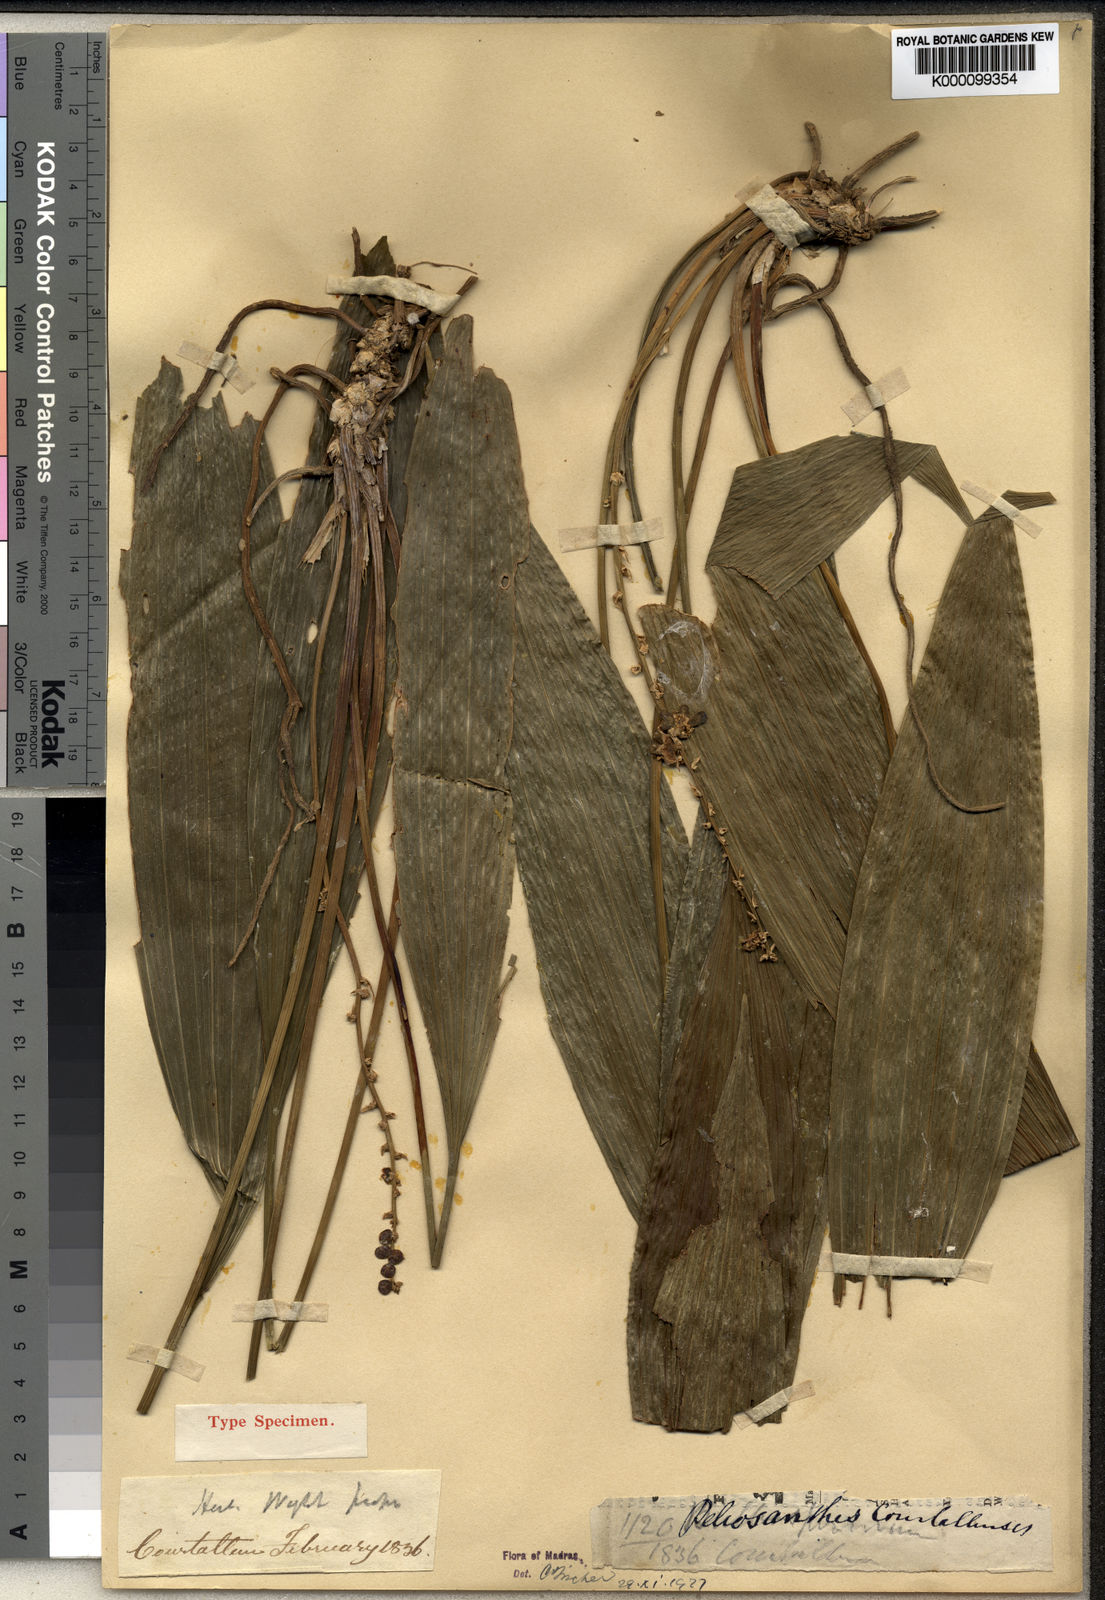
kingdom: Plantae
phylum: Tracheophyta
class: Liliopsida
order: Asparagales
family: Asparagaceae
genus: Peliosanthes
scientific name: Peliosanthes teta
